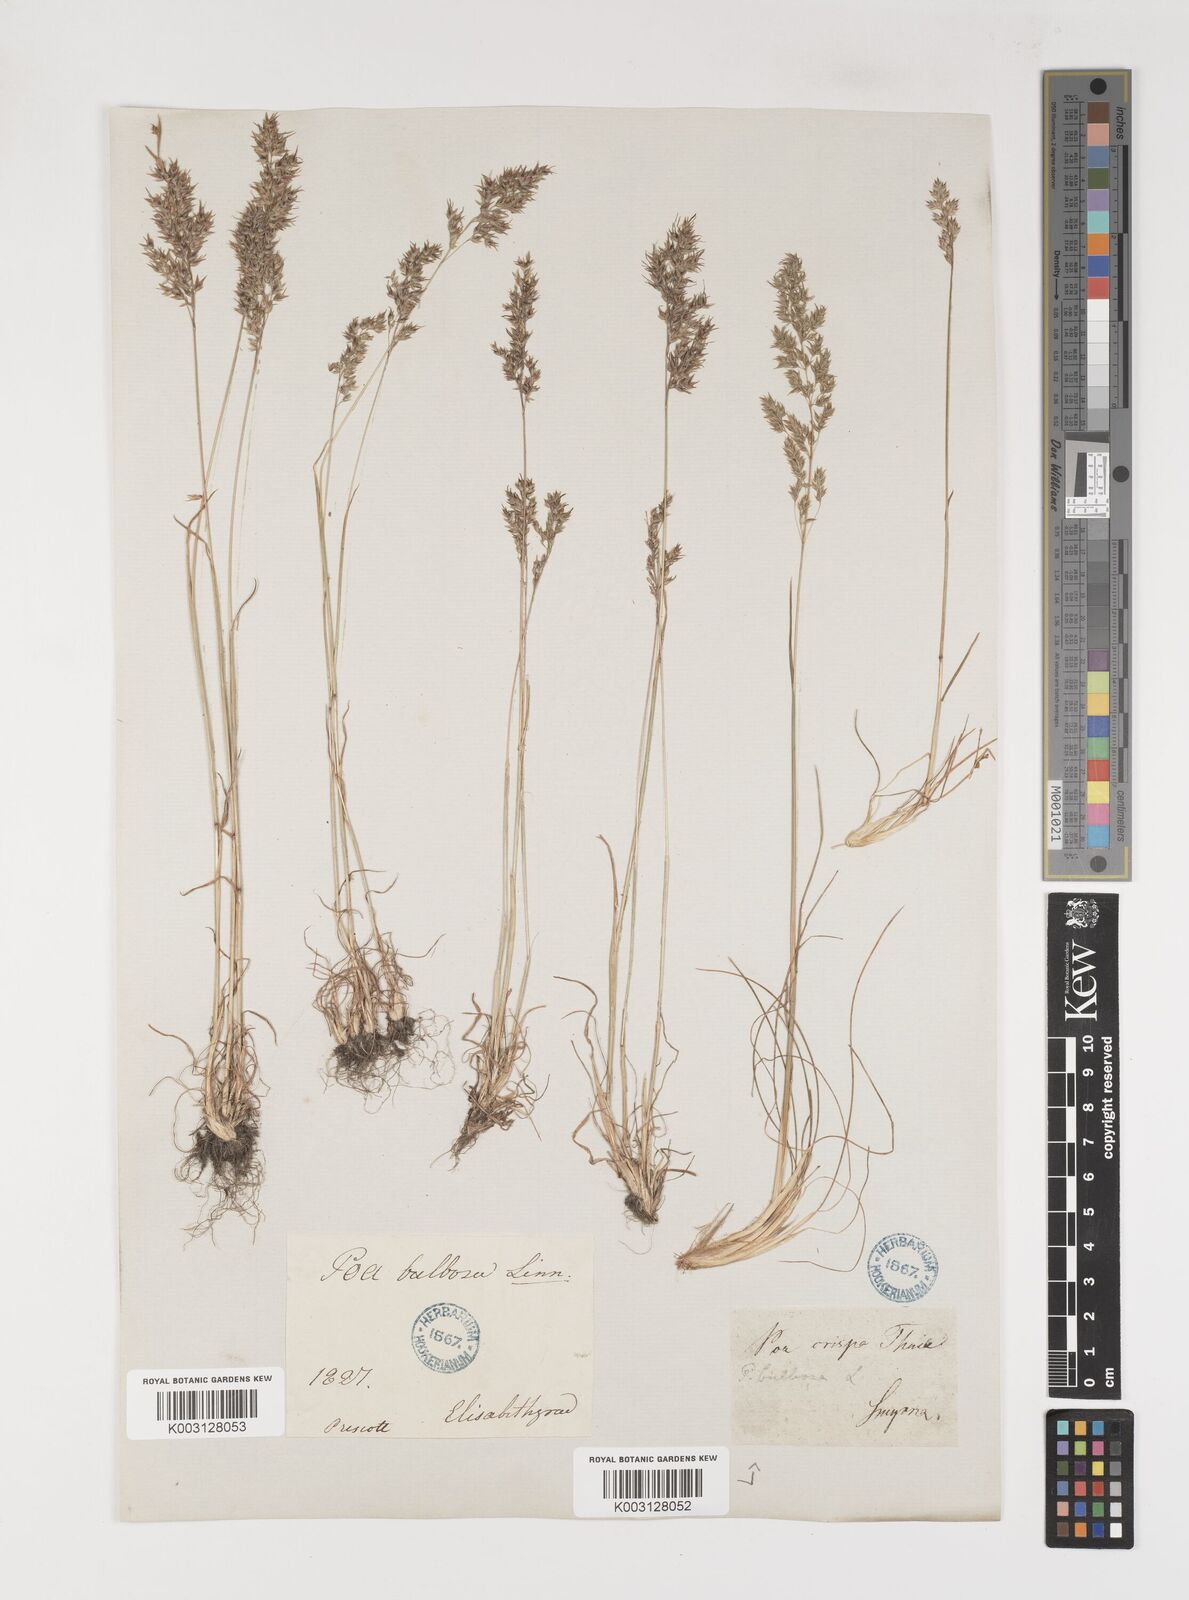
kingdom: Plantae
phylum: Tracheophyta
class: Liliopsida
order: Poales
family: Poaceae
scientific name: Poaceae
